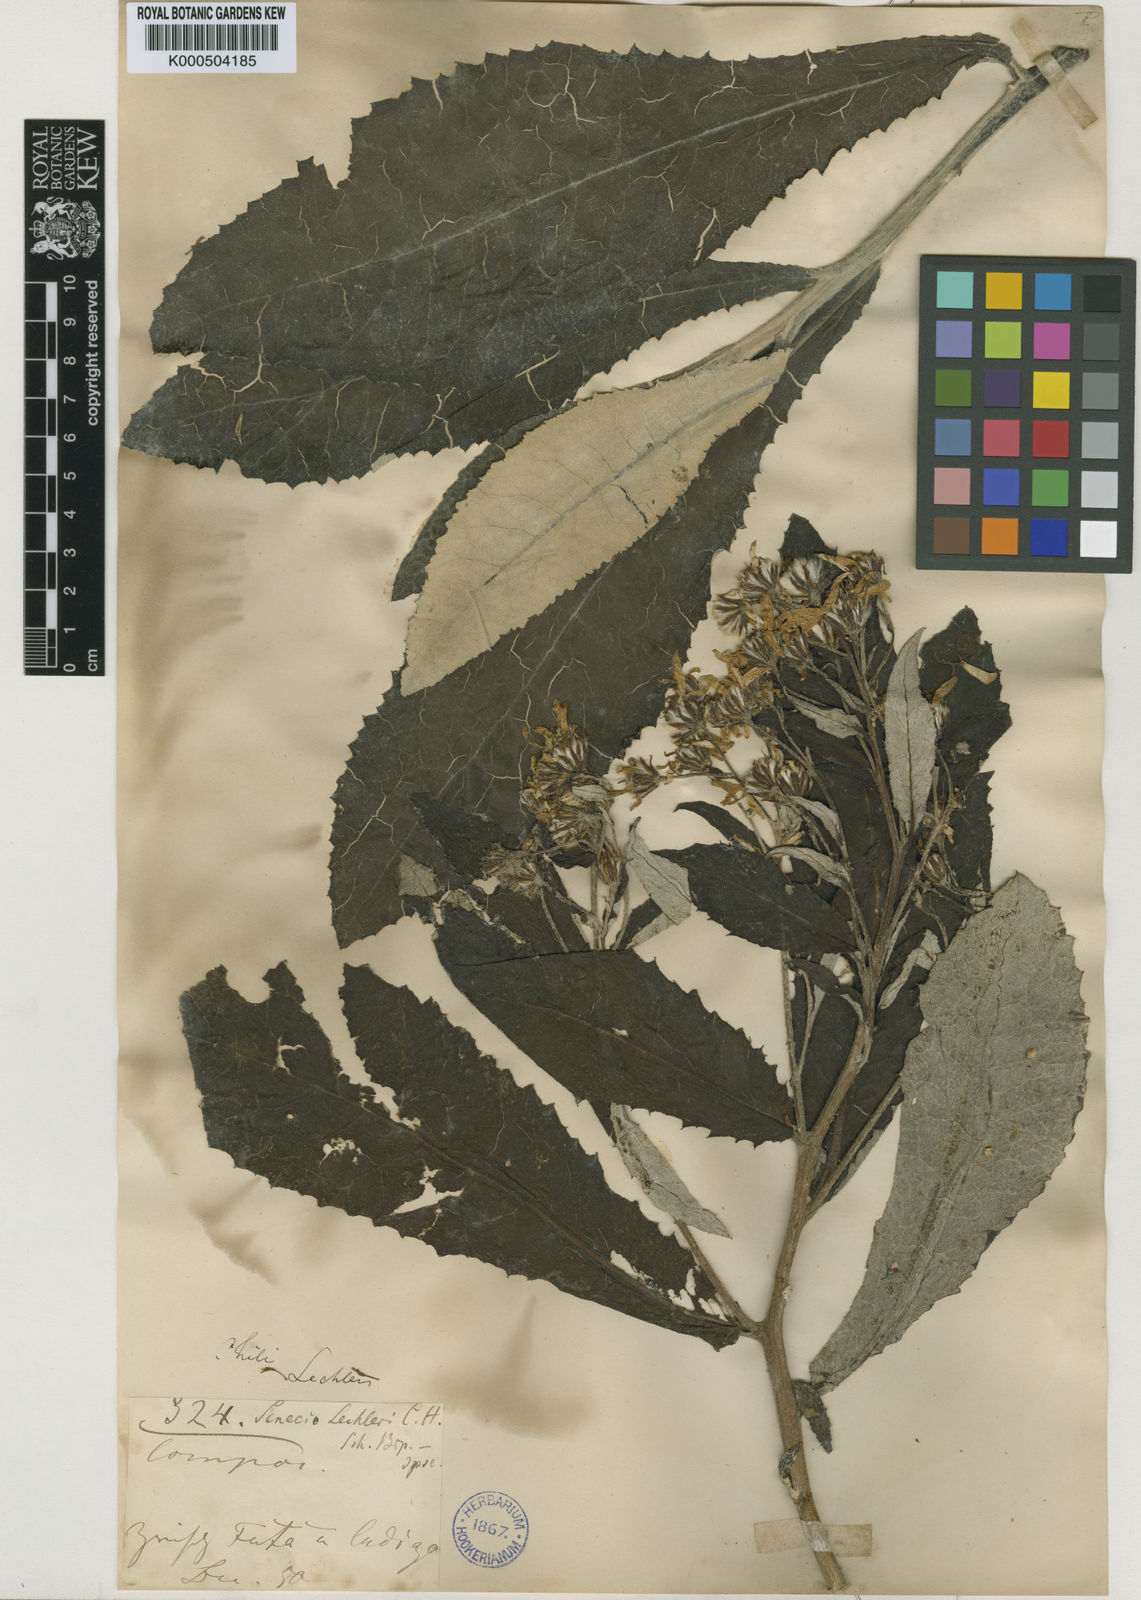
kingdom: Plantae
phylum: Tracheophyta
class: Magnoliopsida
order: Asterales
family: Asteraceae
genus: Acrisione
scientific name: Acrisione cymosa
